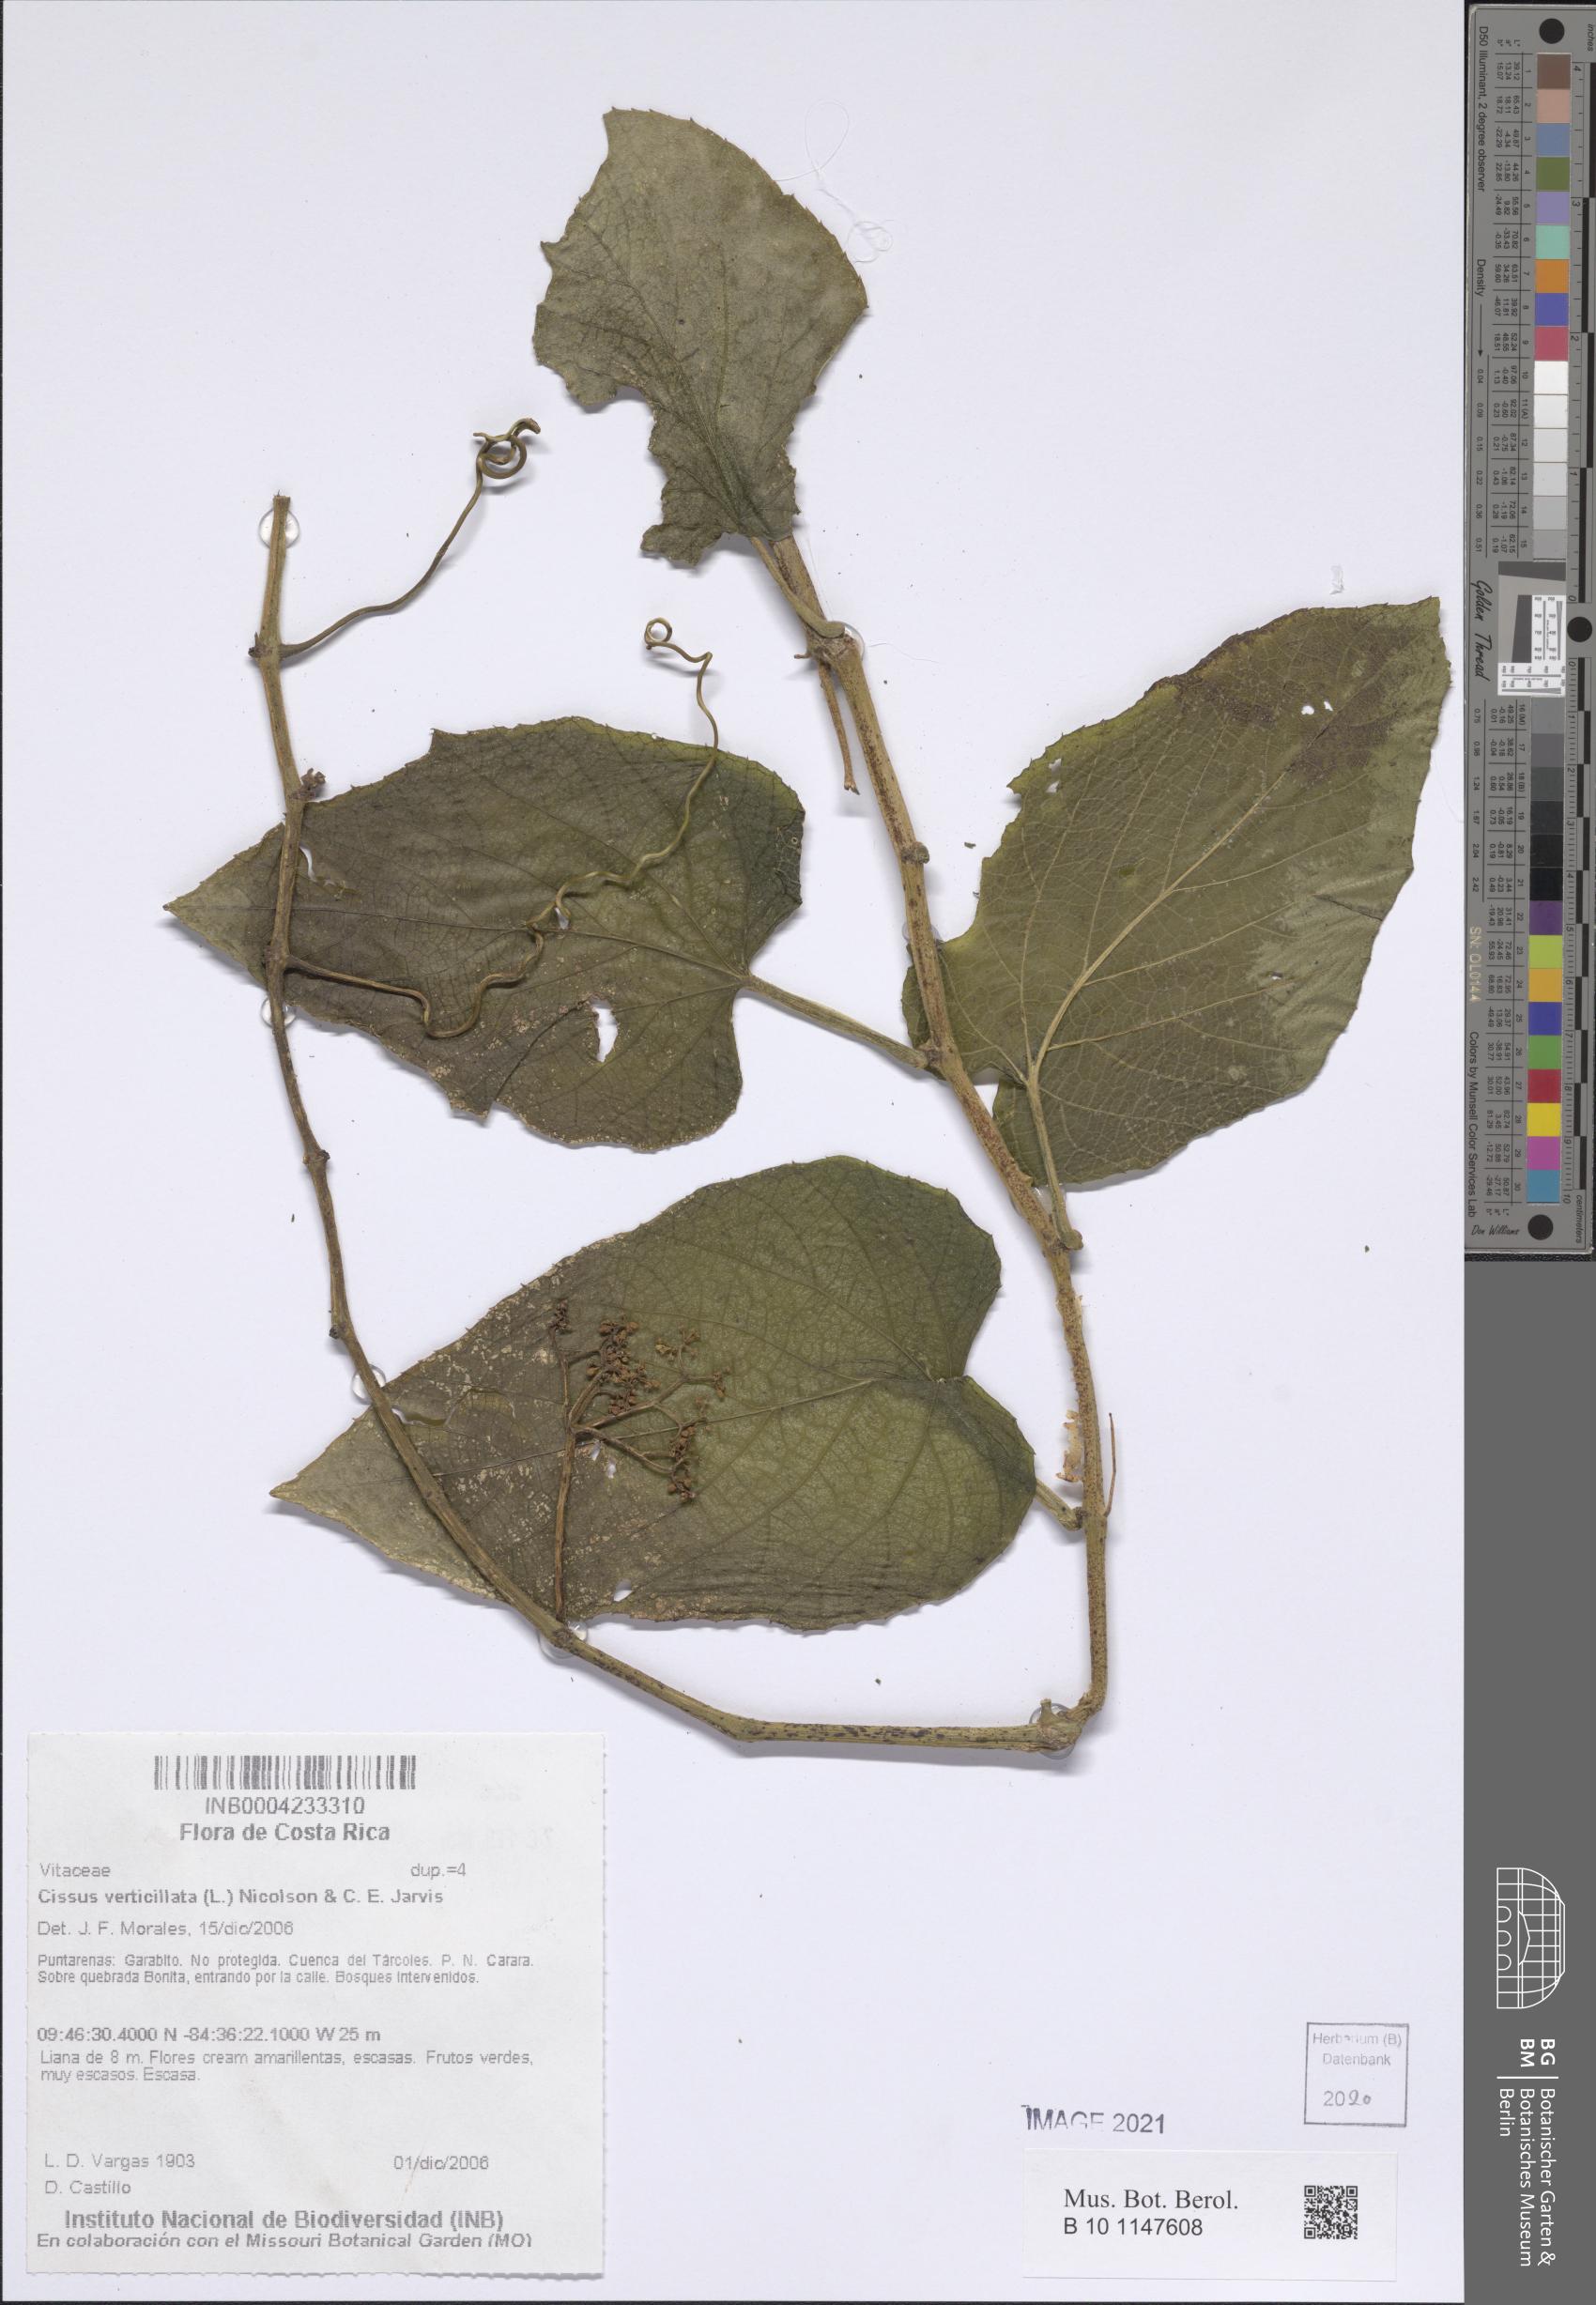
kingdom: Plantae
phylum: Tracheophyta
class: Magnoliopsida
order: Vitales
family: Vitaceae
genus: Cissus
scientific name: Cissus verticillata
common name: Princess vine
